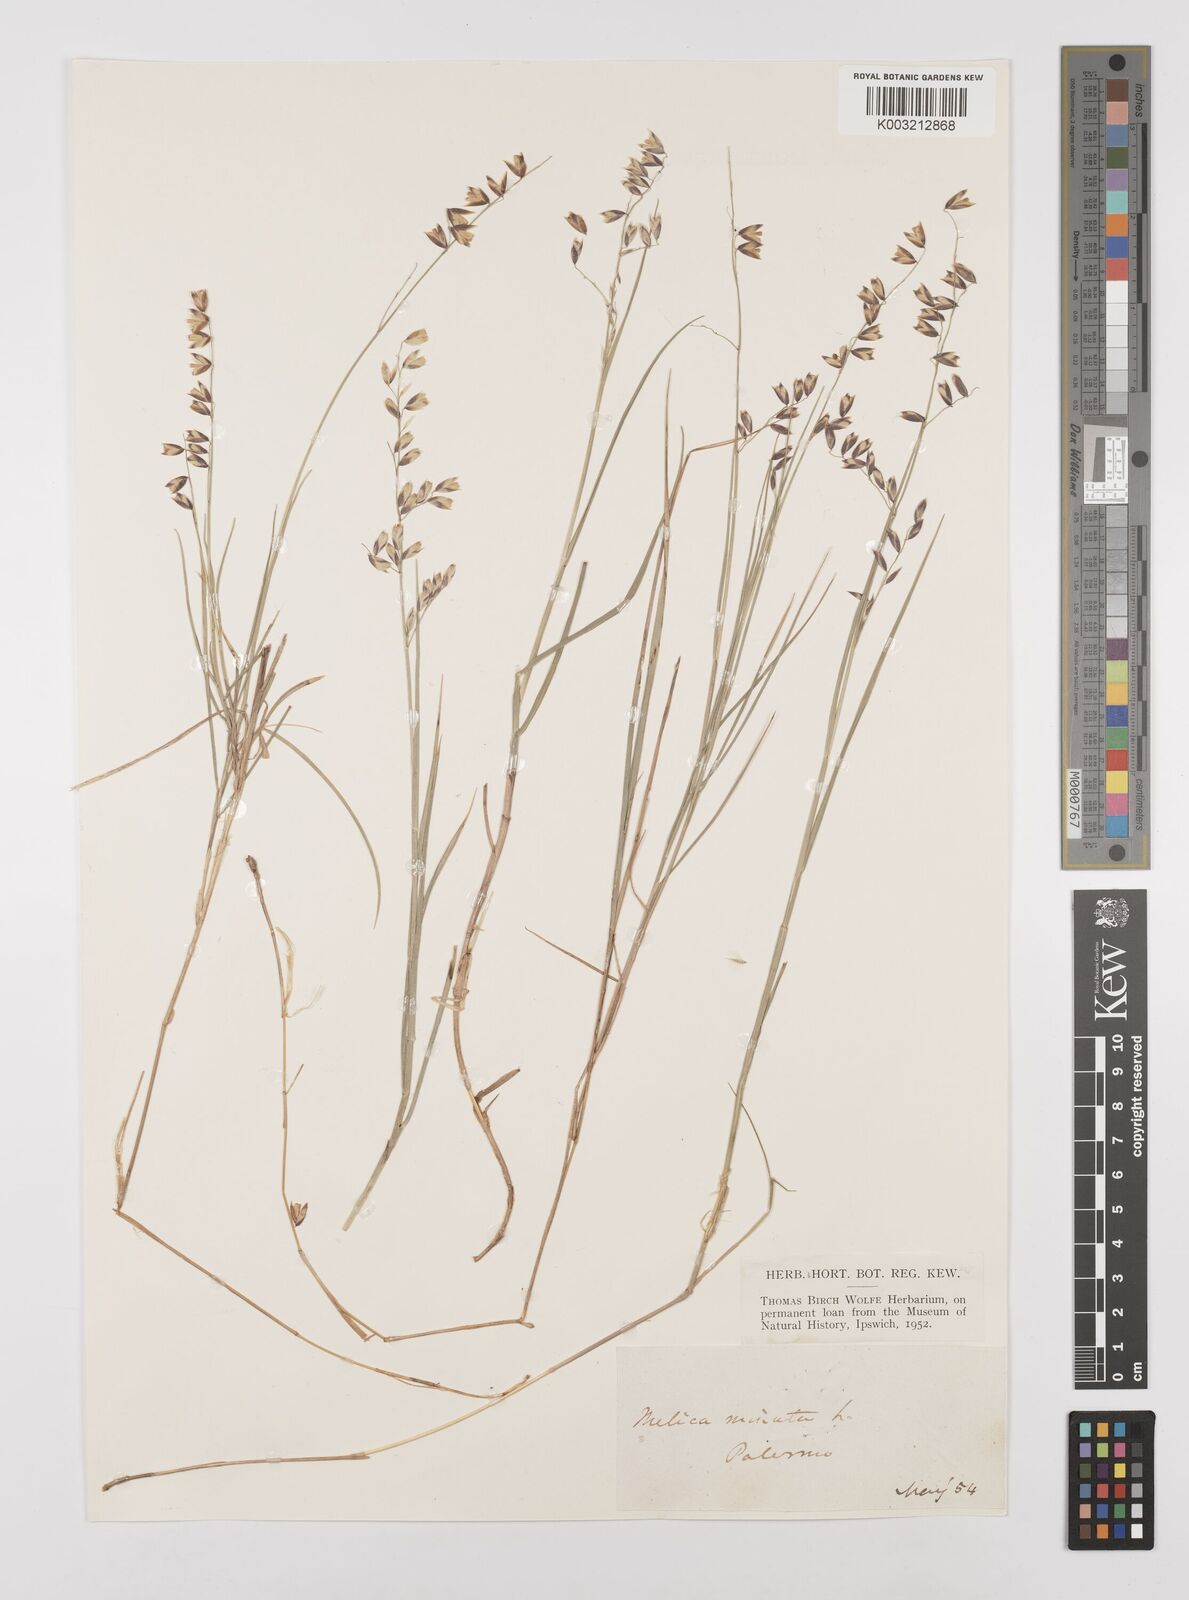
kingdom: Plantae
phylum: Tracheophyta
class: Liliopsida
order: Poales
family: Poaceae
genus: Melica
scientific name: Melica minuta
